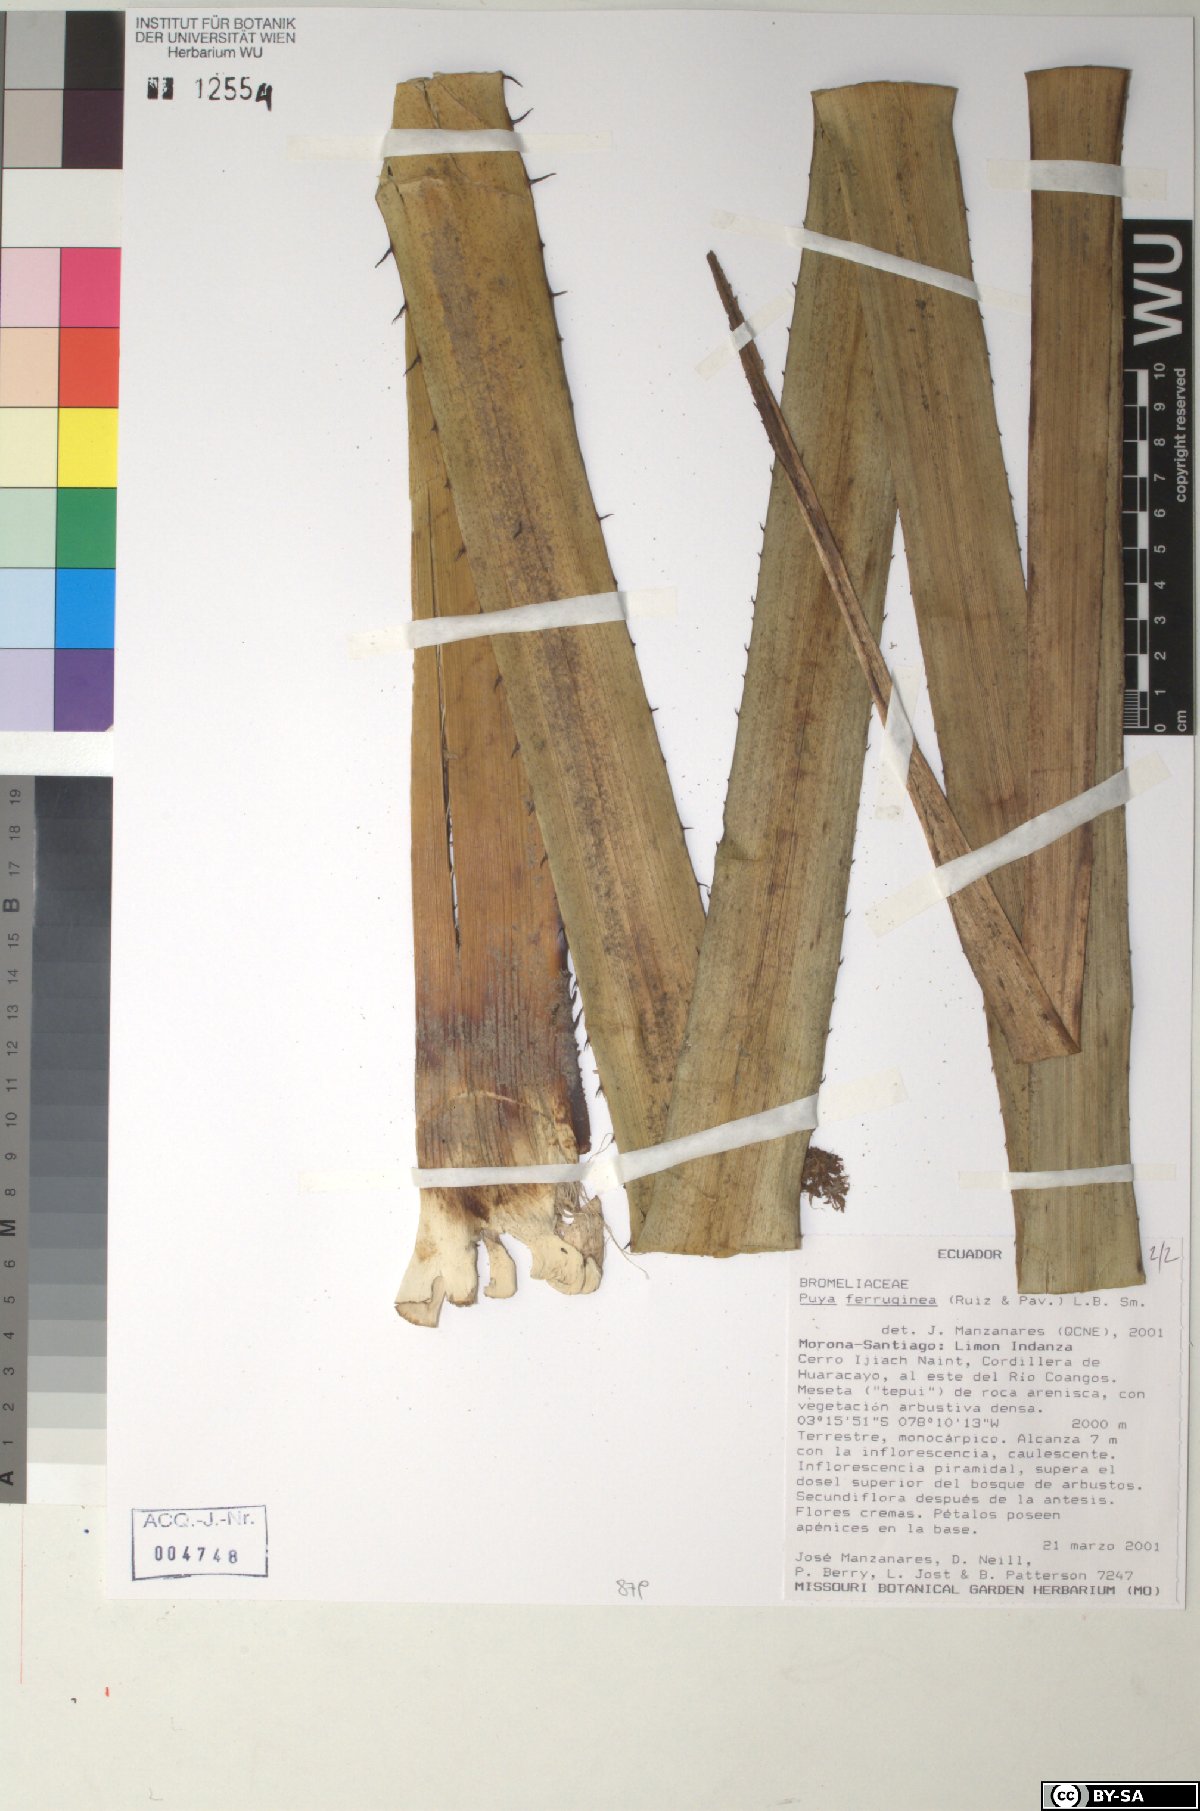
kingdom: Plantae
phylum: Tracheophyta
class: Liliopsida
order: Poales
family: Bromeliaceae
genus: Puya
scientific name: Puya ferruginea
